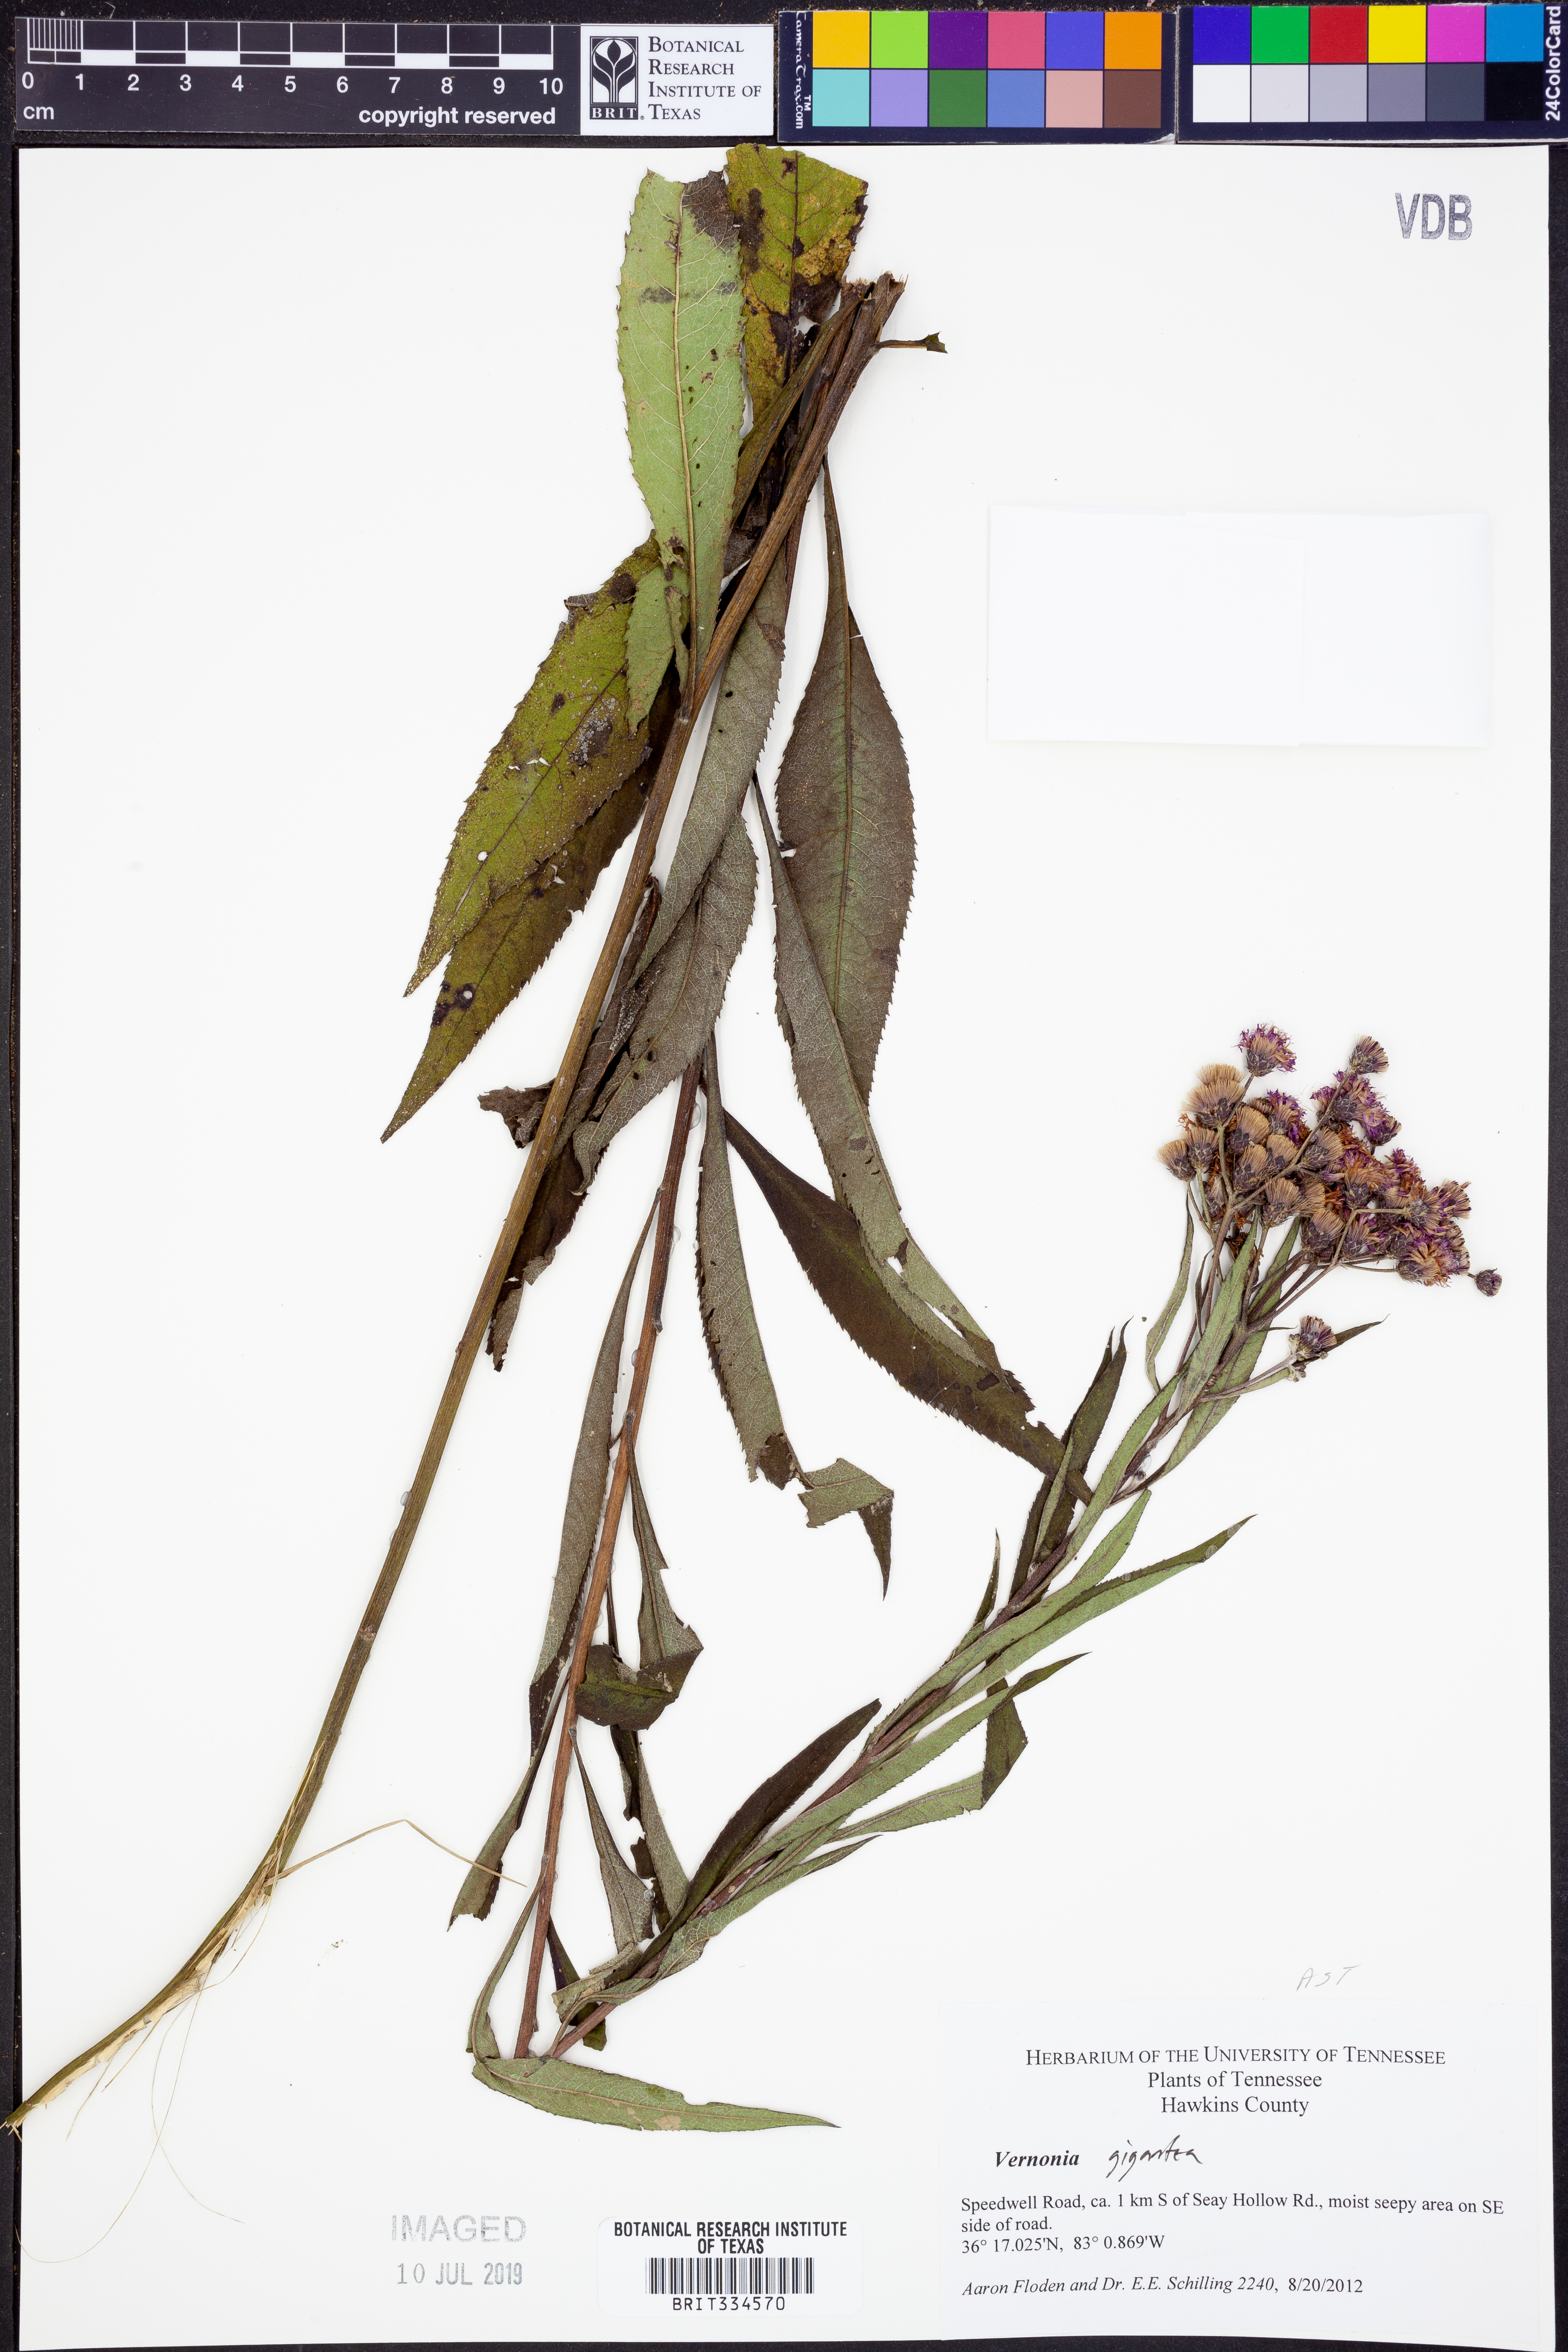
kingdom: Plantae
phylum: Tracheophyta
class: Magnoliopsida
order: Asterales
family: Asteraceae
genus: Vernonia
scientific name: Vernonia gigantea
